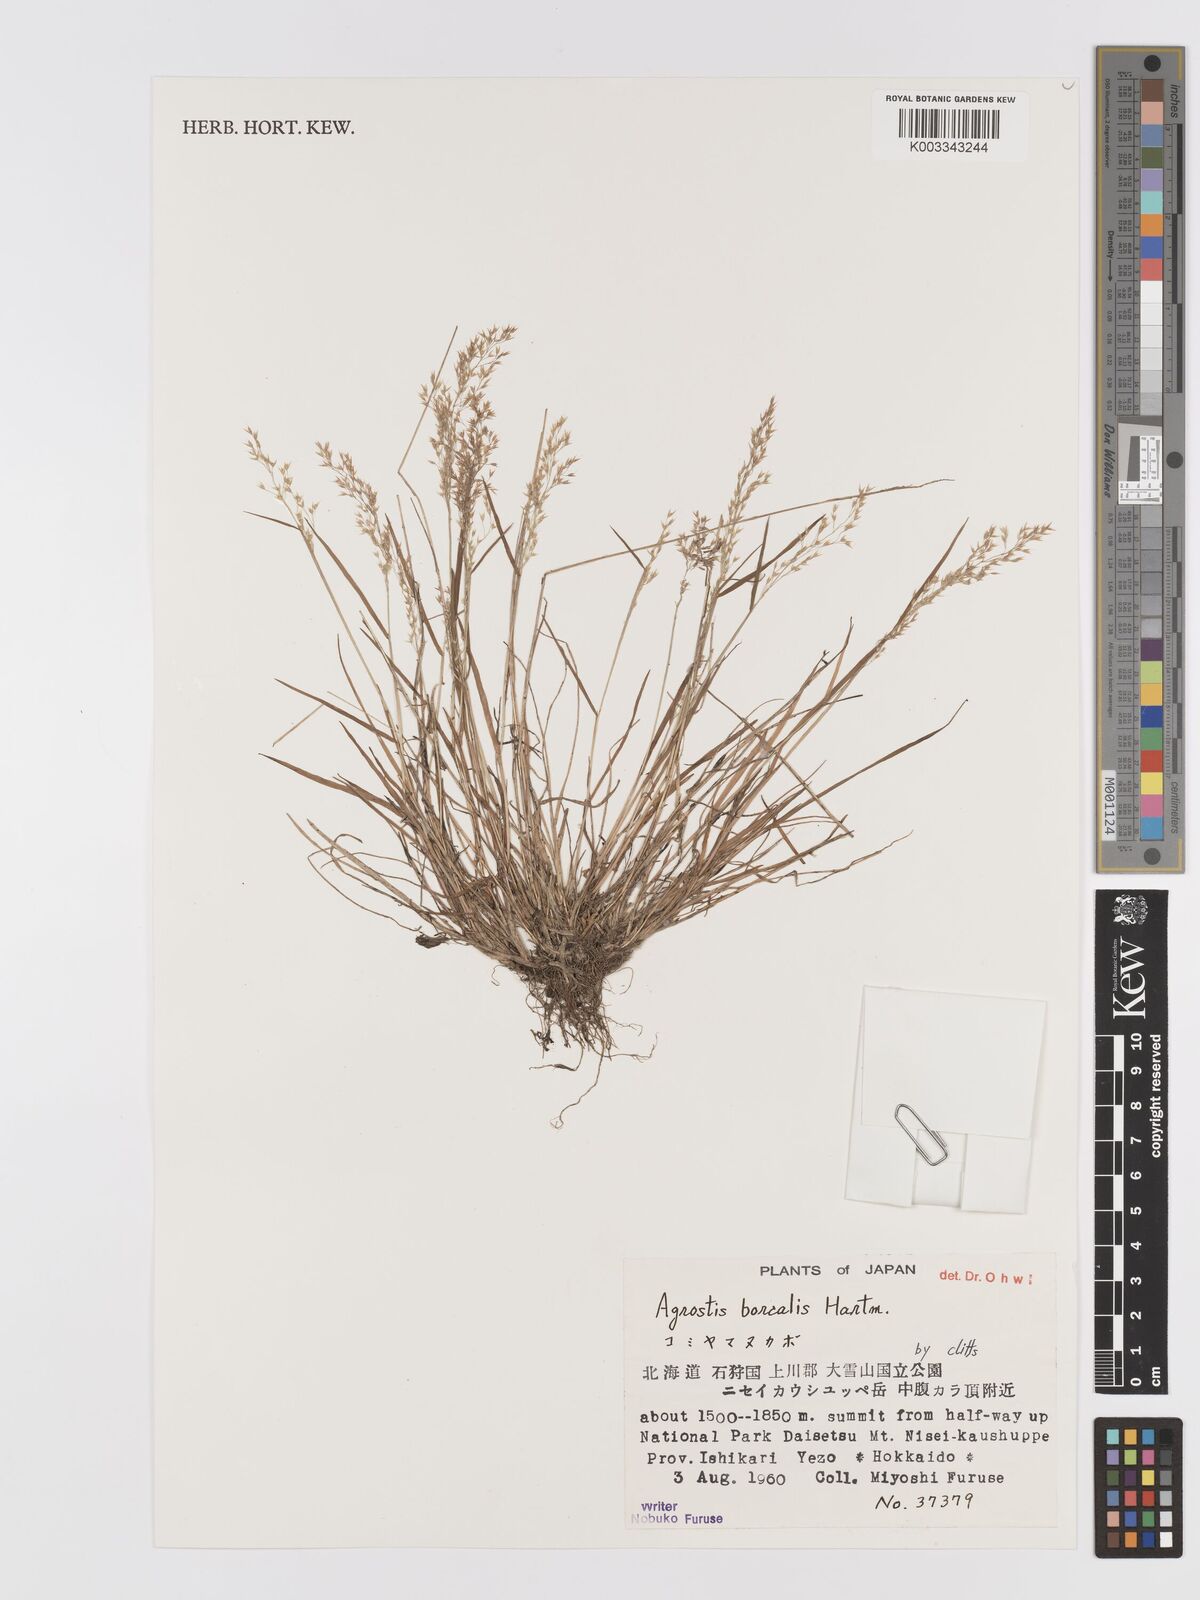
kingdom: Plantae
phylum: Tracheophyta
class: Liliopsida
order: Poales
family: Poaceae
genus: Agrostis
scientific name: Agrostis mertensii
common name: Northern bent
